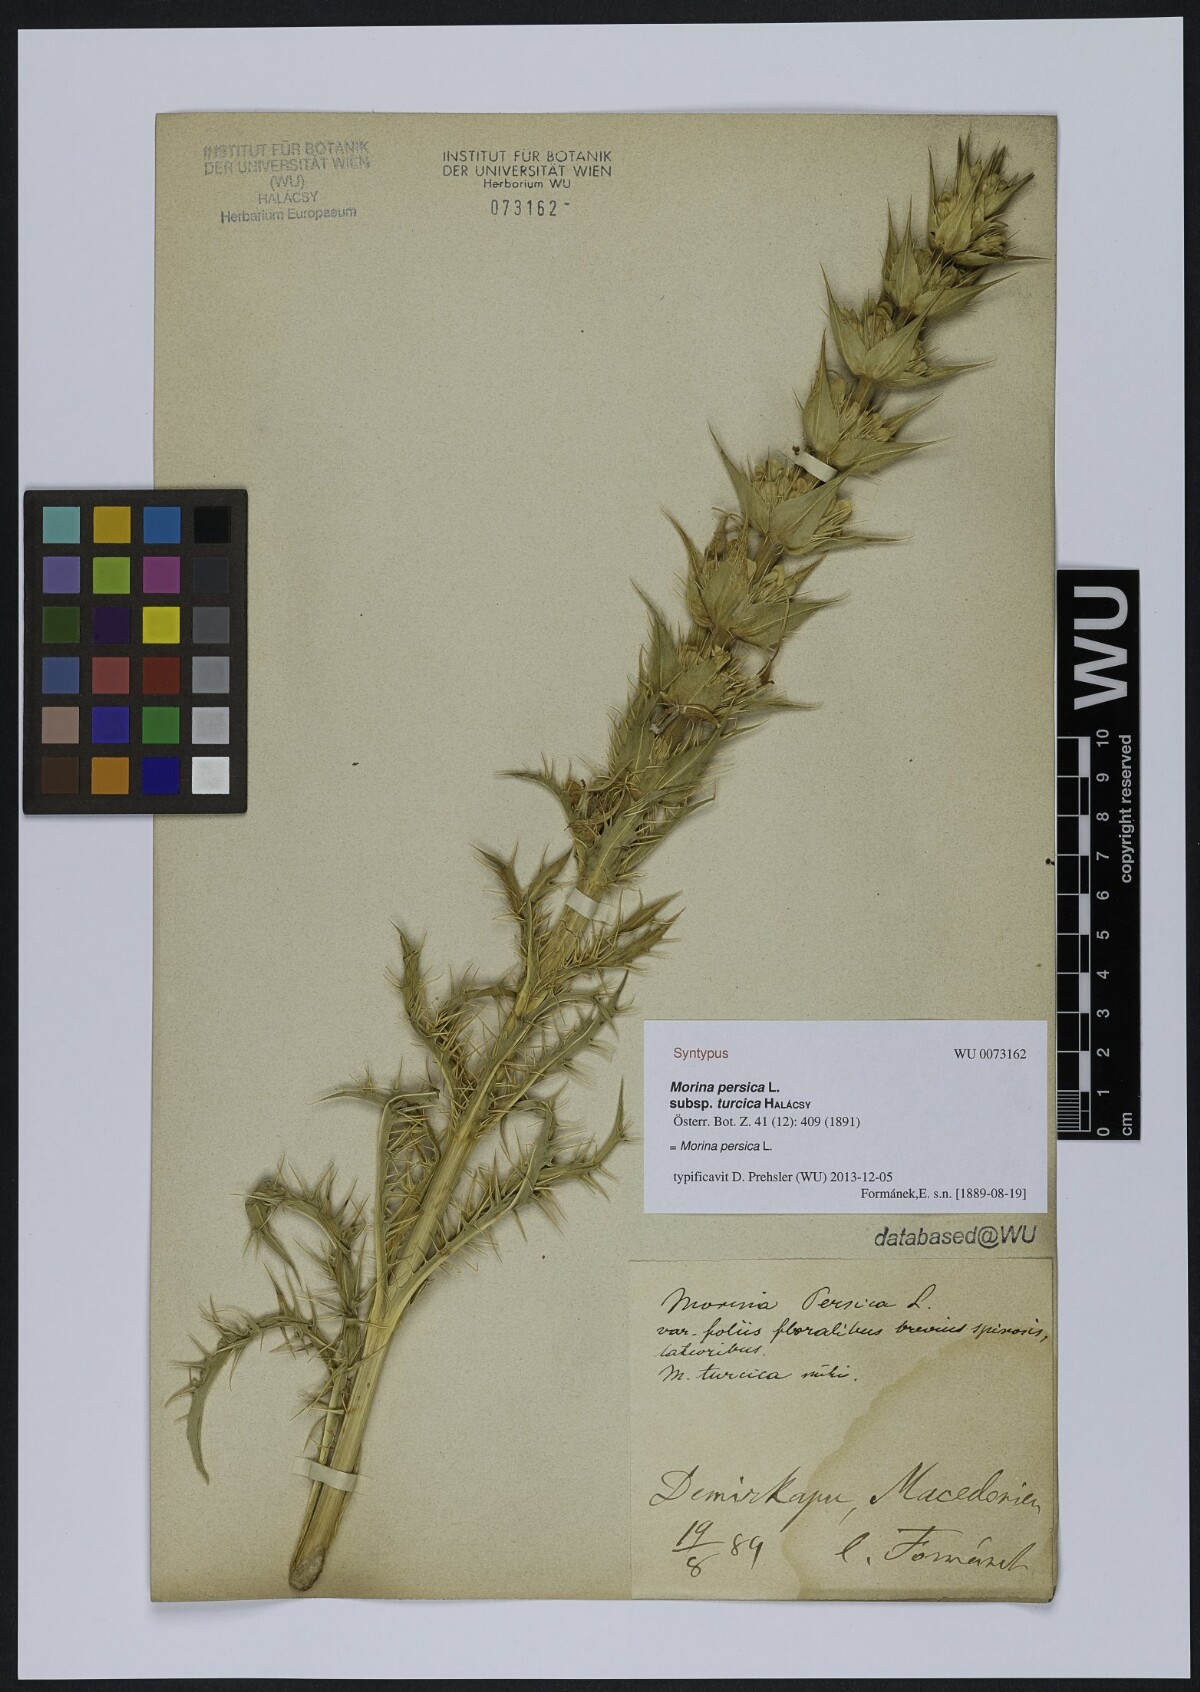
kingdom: Plantae
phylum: Tracheophyta
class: Magnoliopsida
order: Dipsacales
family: Caprifoliaceae
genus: Morina
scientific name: Morina persica
